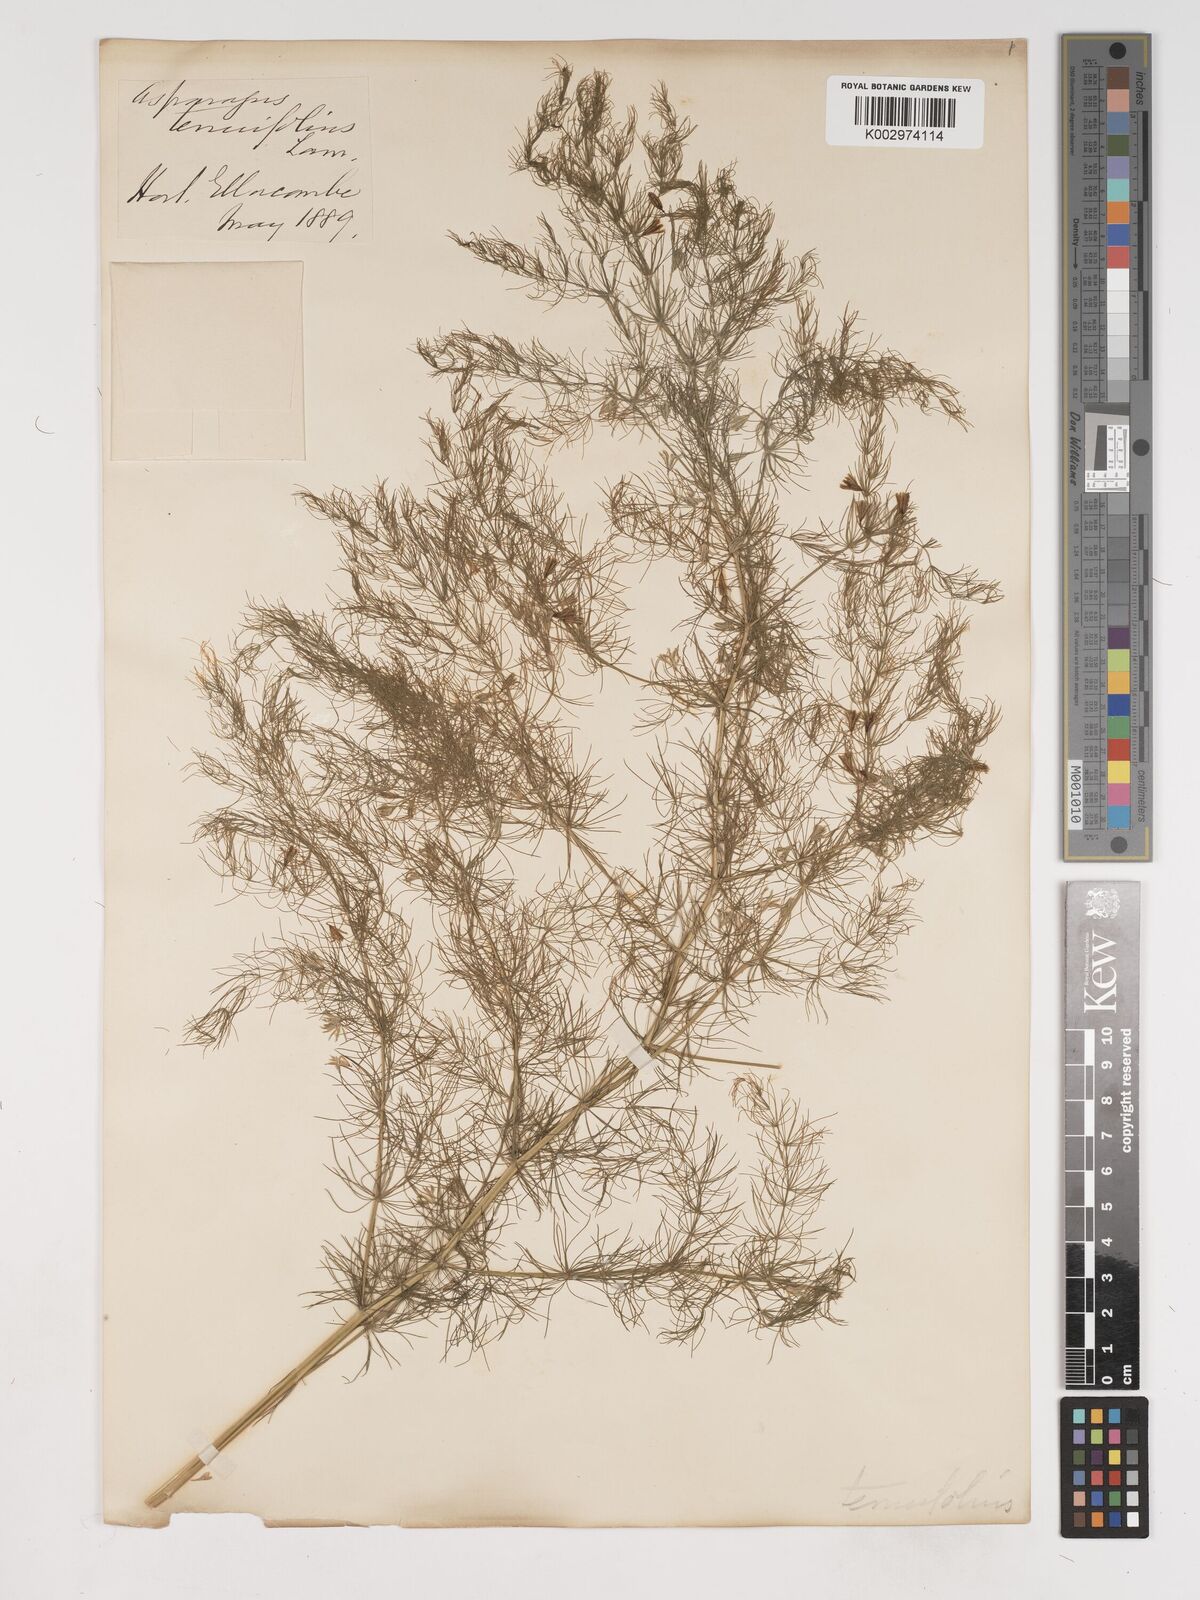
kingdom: Plantae
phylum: Tracheophyta
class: Liliopsida
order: Asparagales
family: Asparagaceae
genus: Asparagus
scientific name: Asparagus tenuifolius
